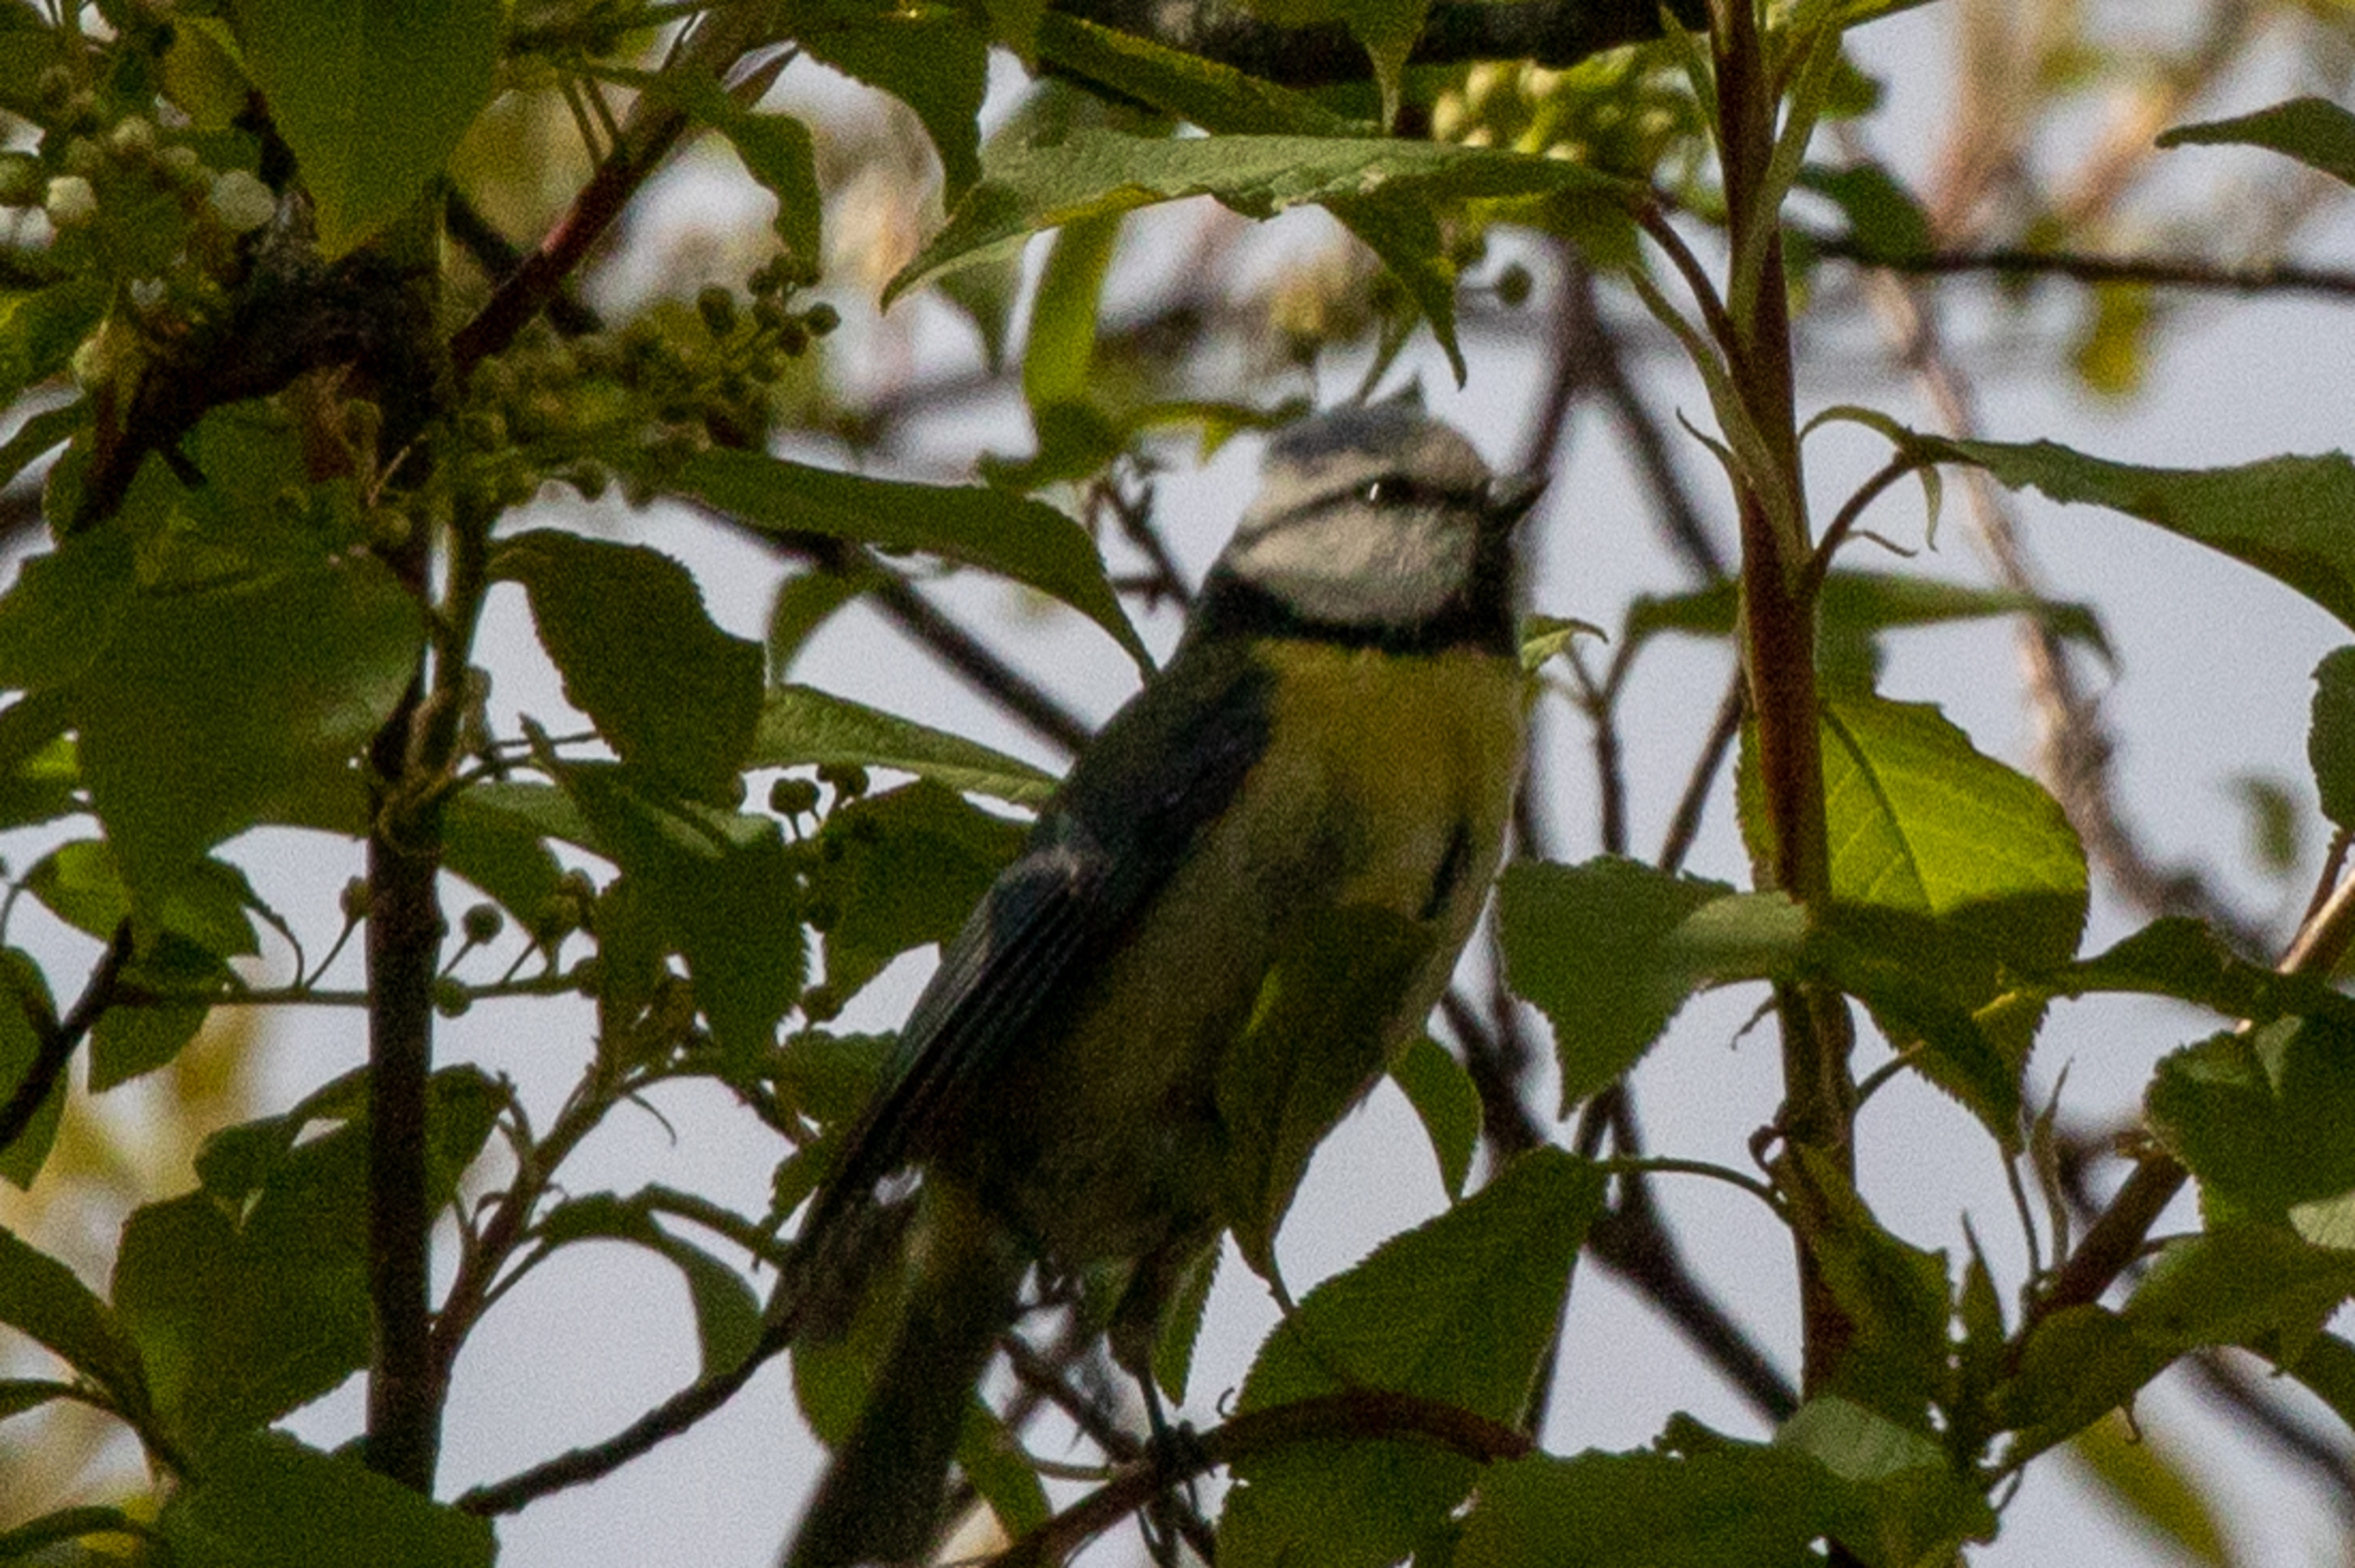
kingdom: Animalia
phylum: Chordata
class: Aves
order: Passeriformes
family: Paridae
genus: Cyanistes
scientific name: Cyanistes caeruleus
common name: Blåmejse
